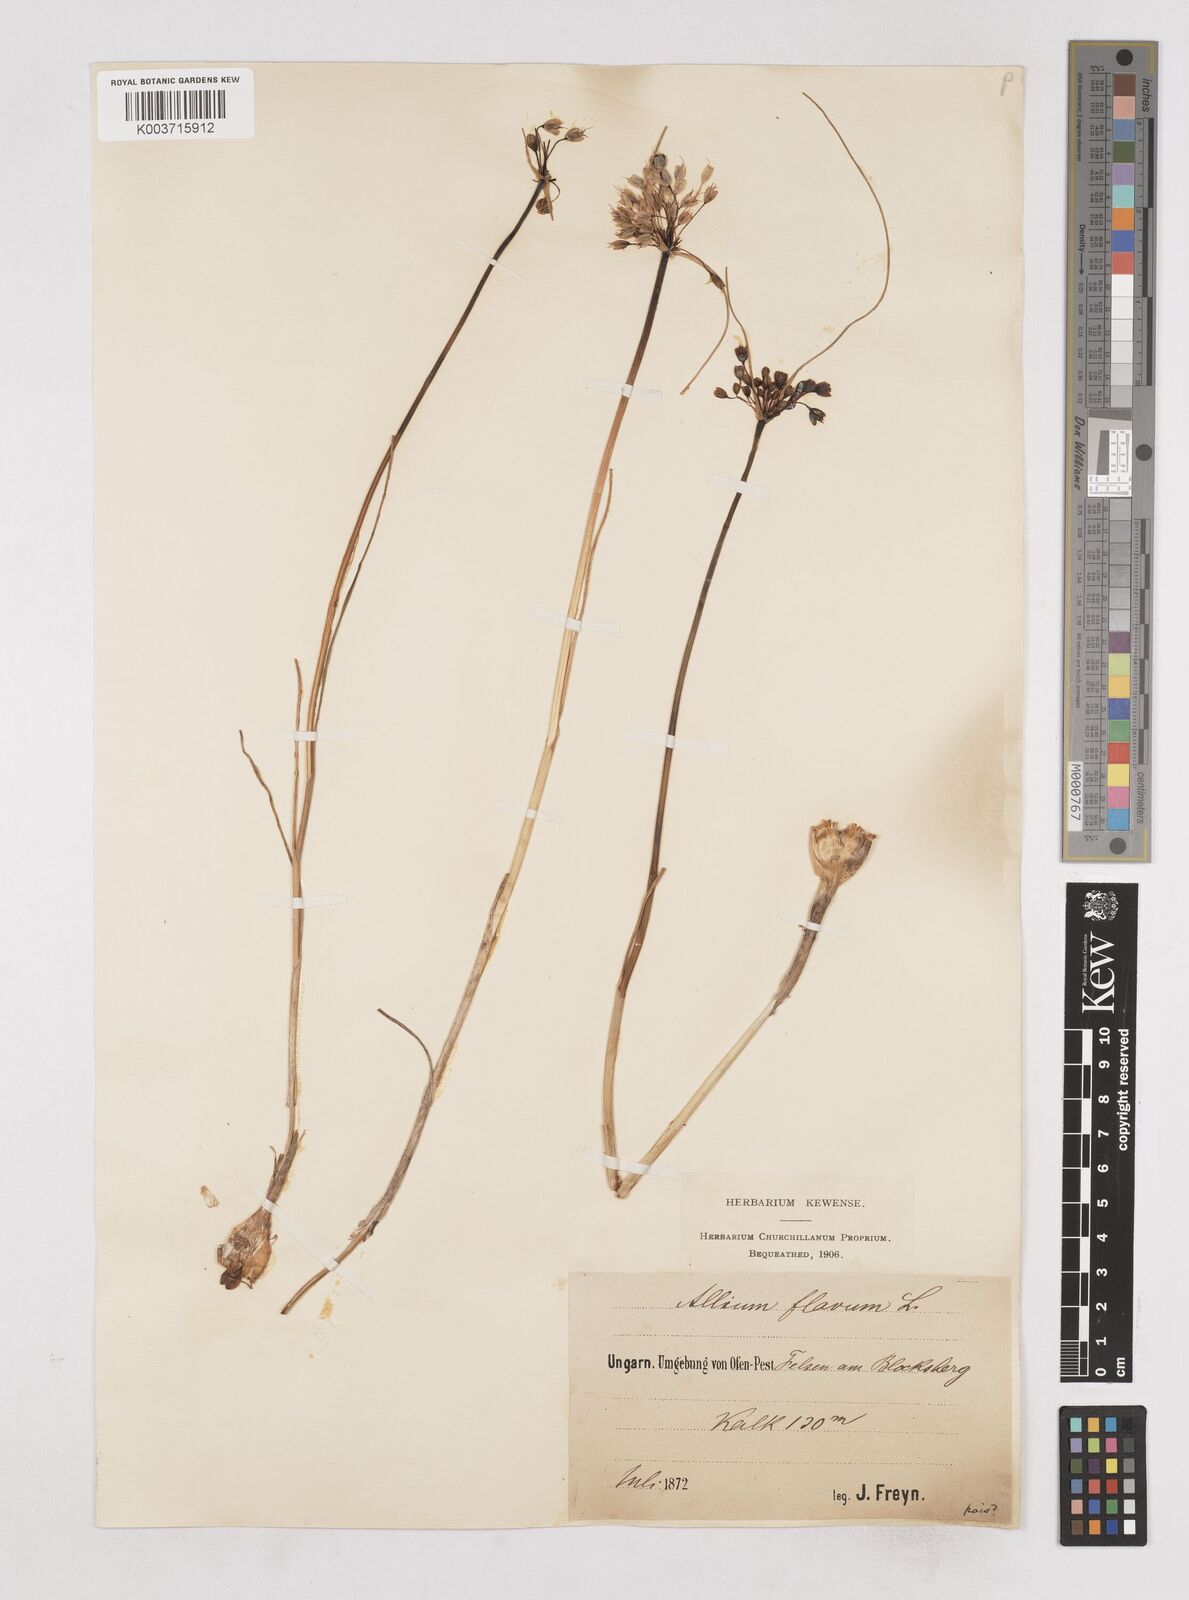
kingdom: Plantae
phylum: Tracheophyta
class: Liliopsida
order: Asparagales
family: Amaryllidaceae
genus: Allium
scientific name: Allium flavum
